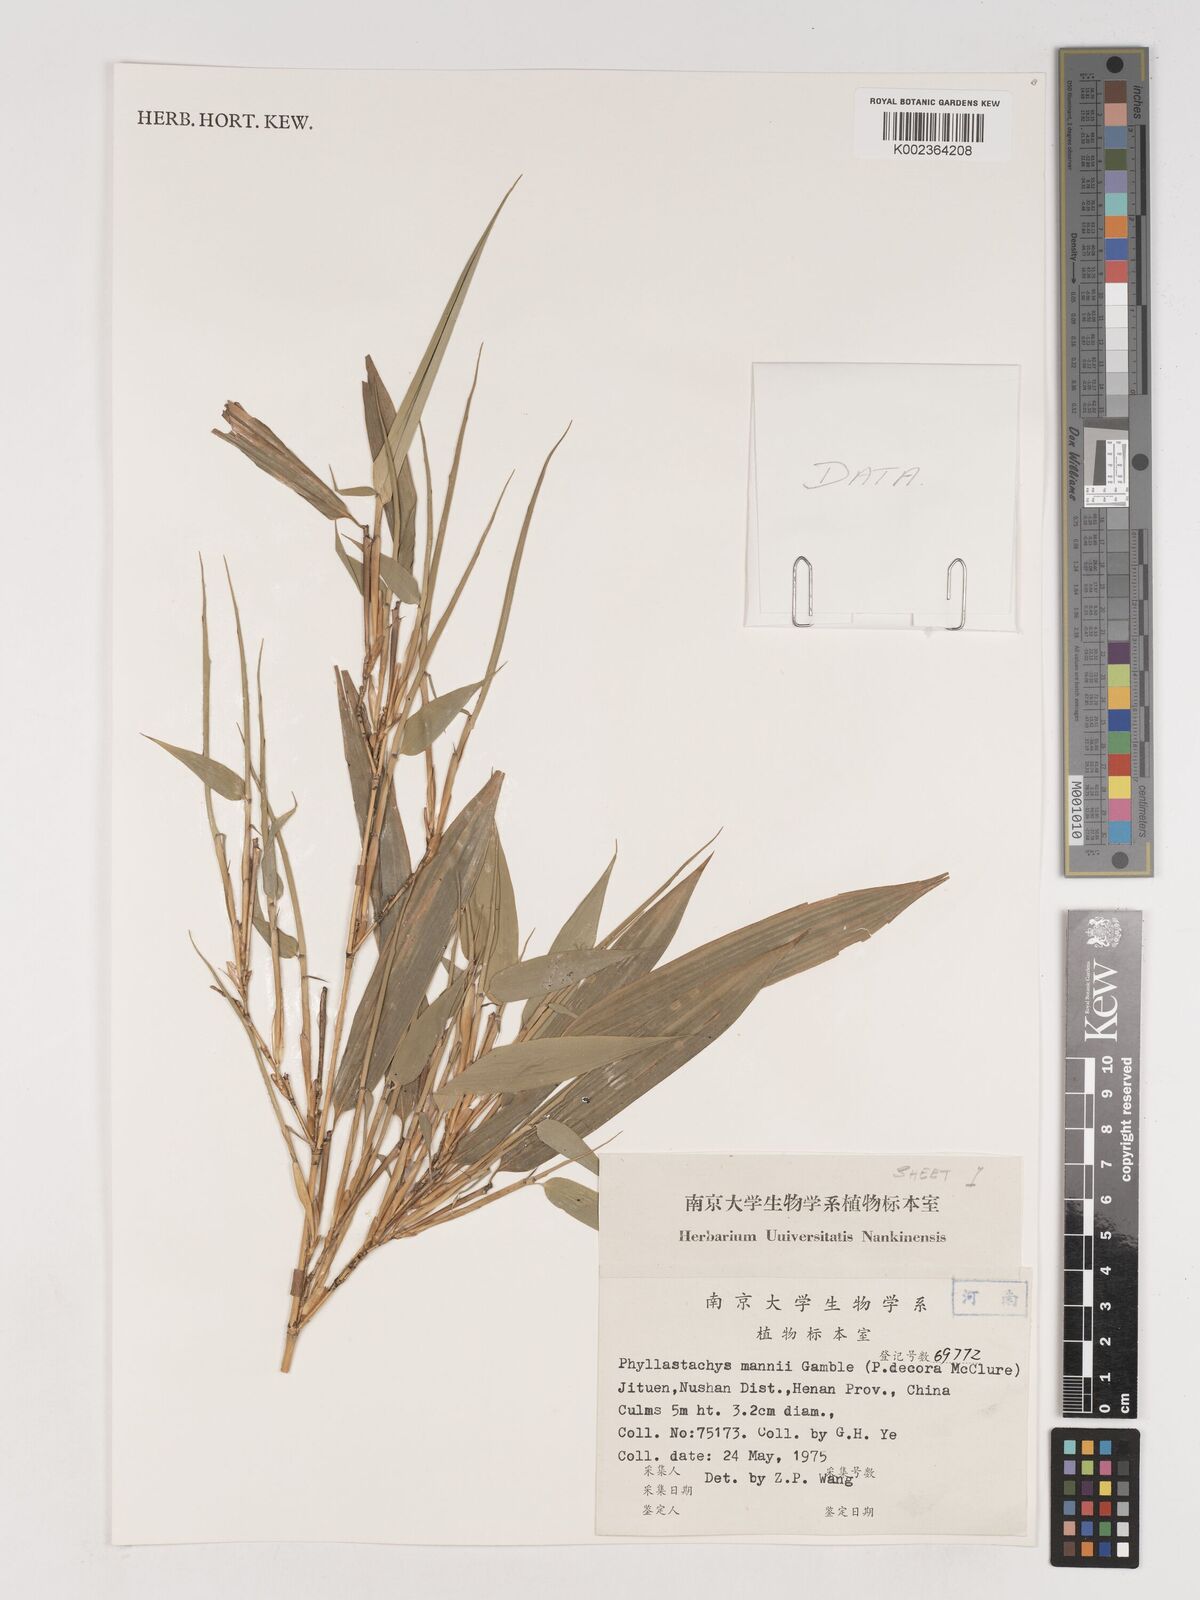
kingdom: Plantae
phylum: Tracheophyta
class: Liliopsida
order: Poales
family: Poaceae
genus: Phyllostachys
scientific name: Phyllostachys makinoi
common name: Makino bamboo
